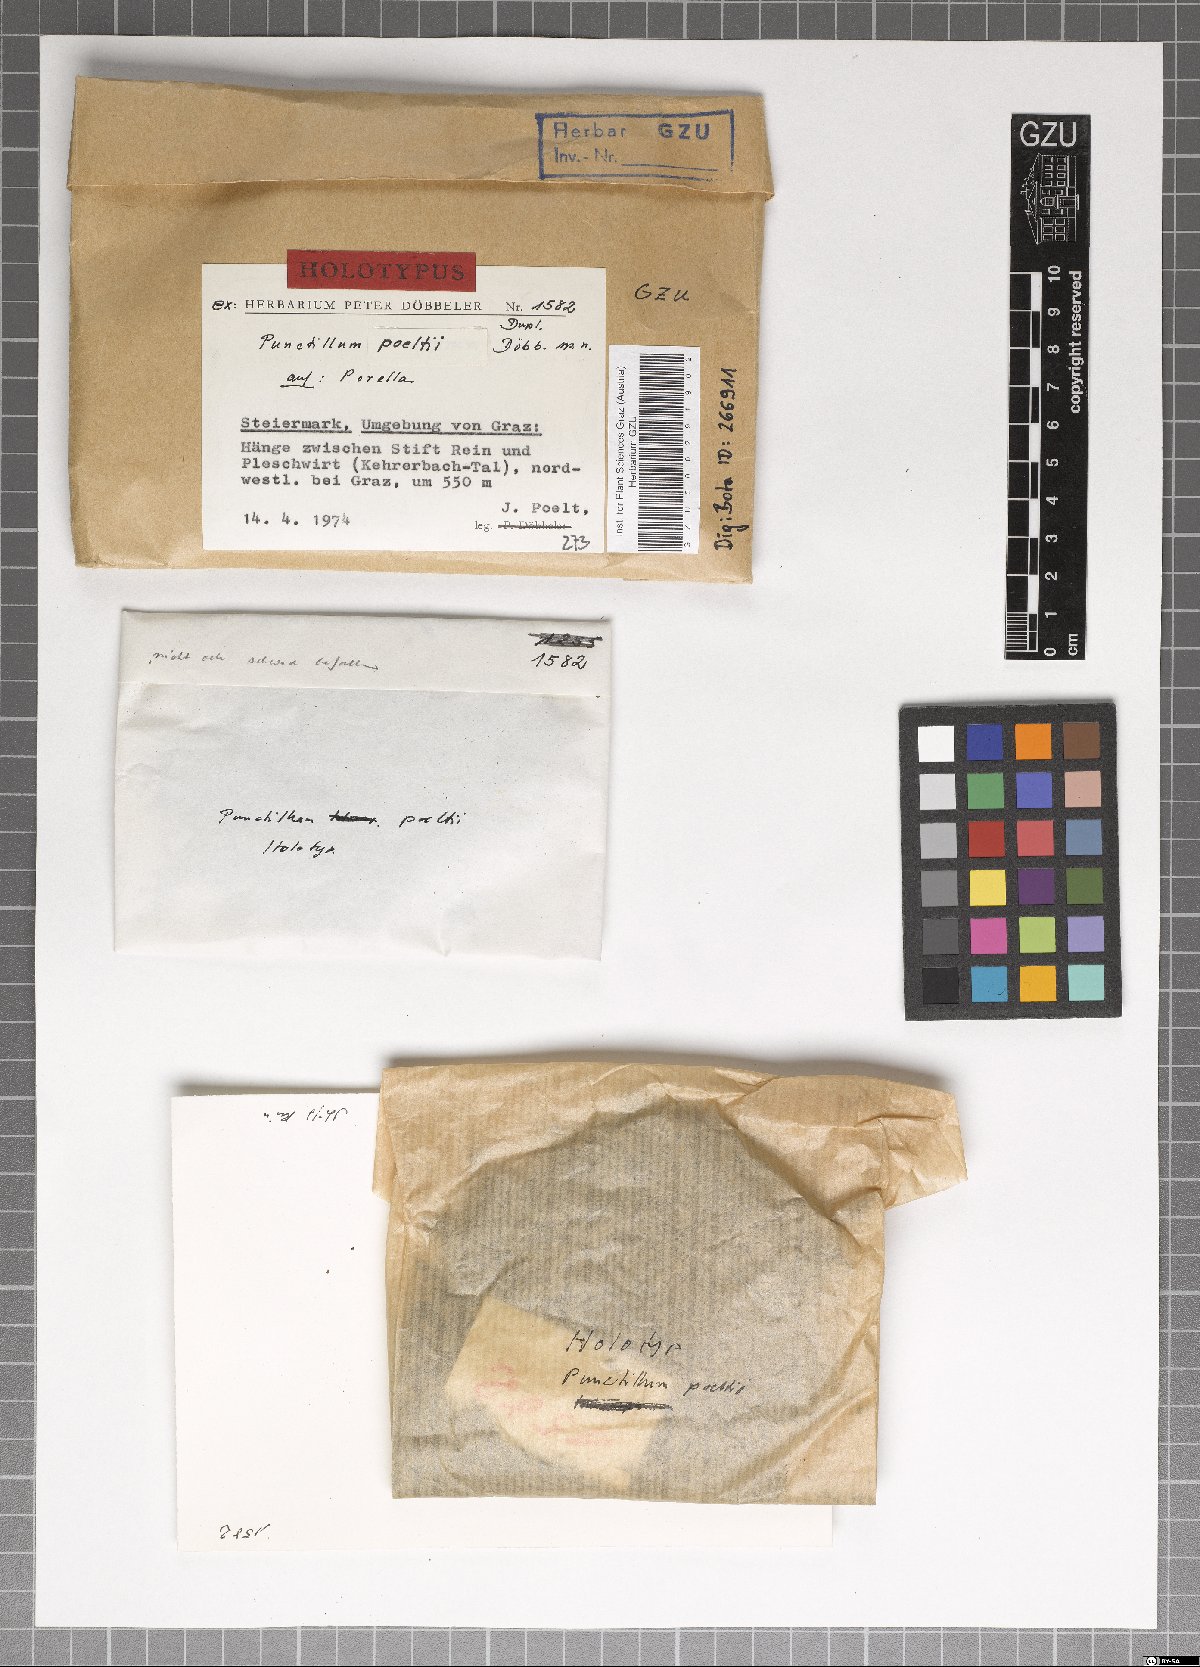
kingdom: Fungi
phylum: Ascomycota
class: Dothideomycetes
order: Dothideales
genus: Hypobryon
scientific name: Hypobryon poeltii
